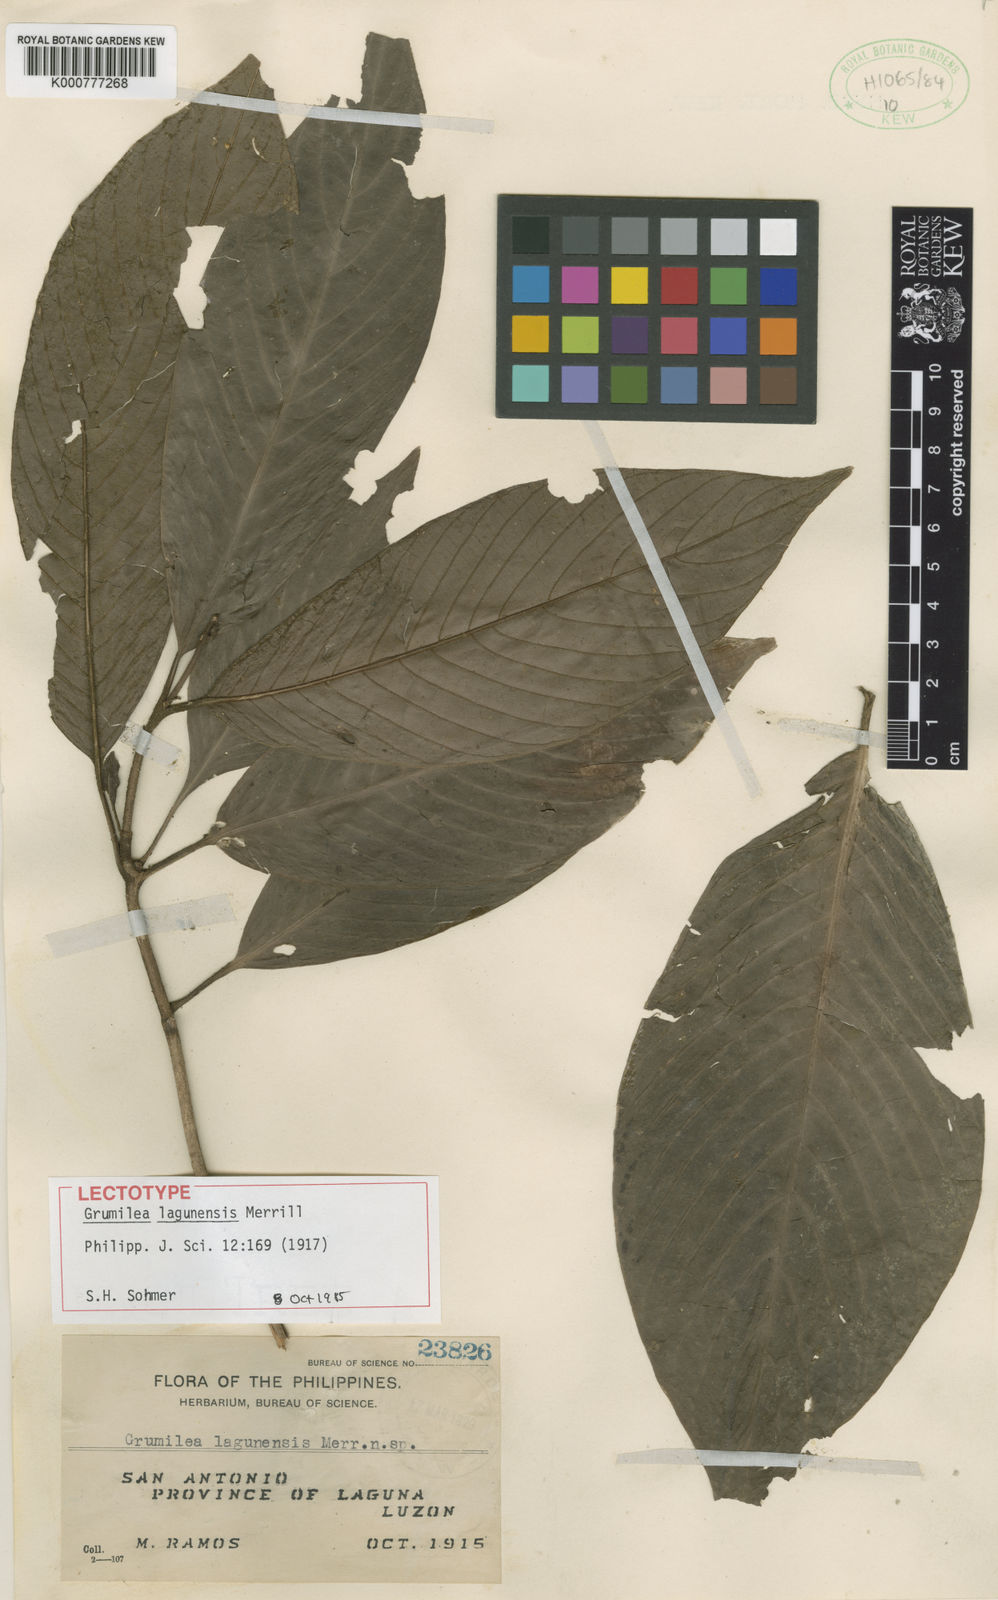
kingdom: Plantae
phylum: Tracheophyta
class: Magnoliopsida
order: Gentianales
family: Rubiaceae
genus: Psychotria
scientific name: Psychotria lagunensis
